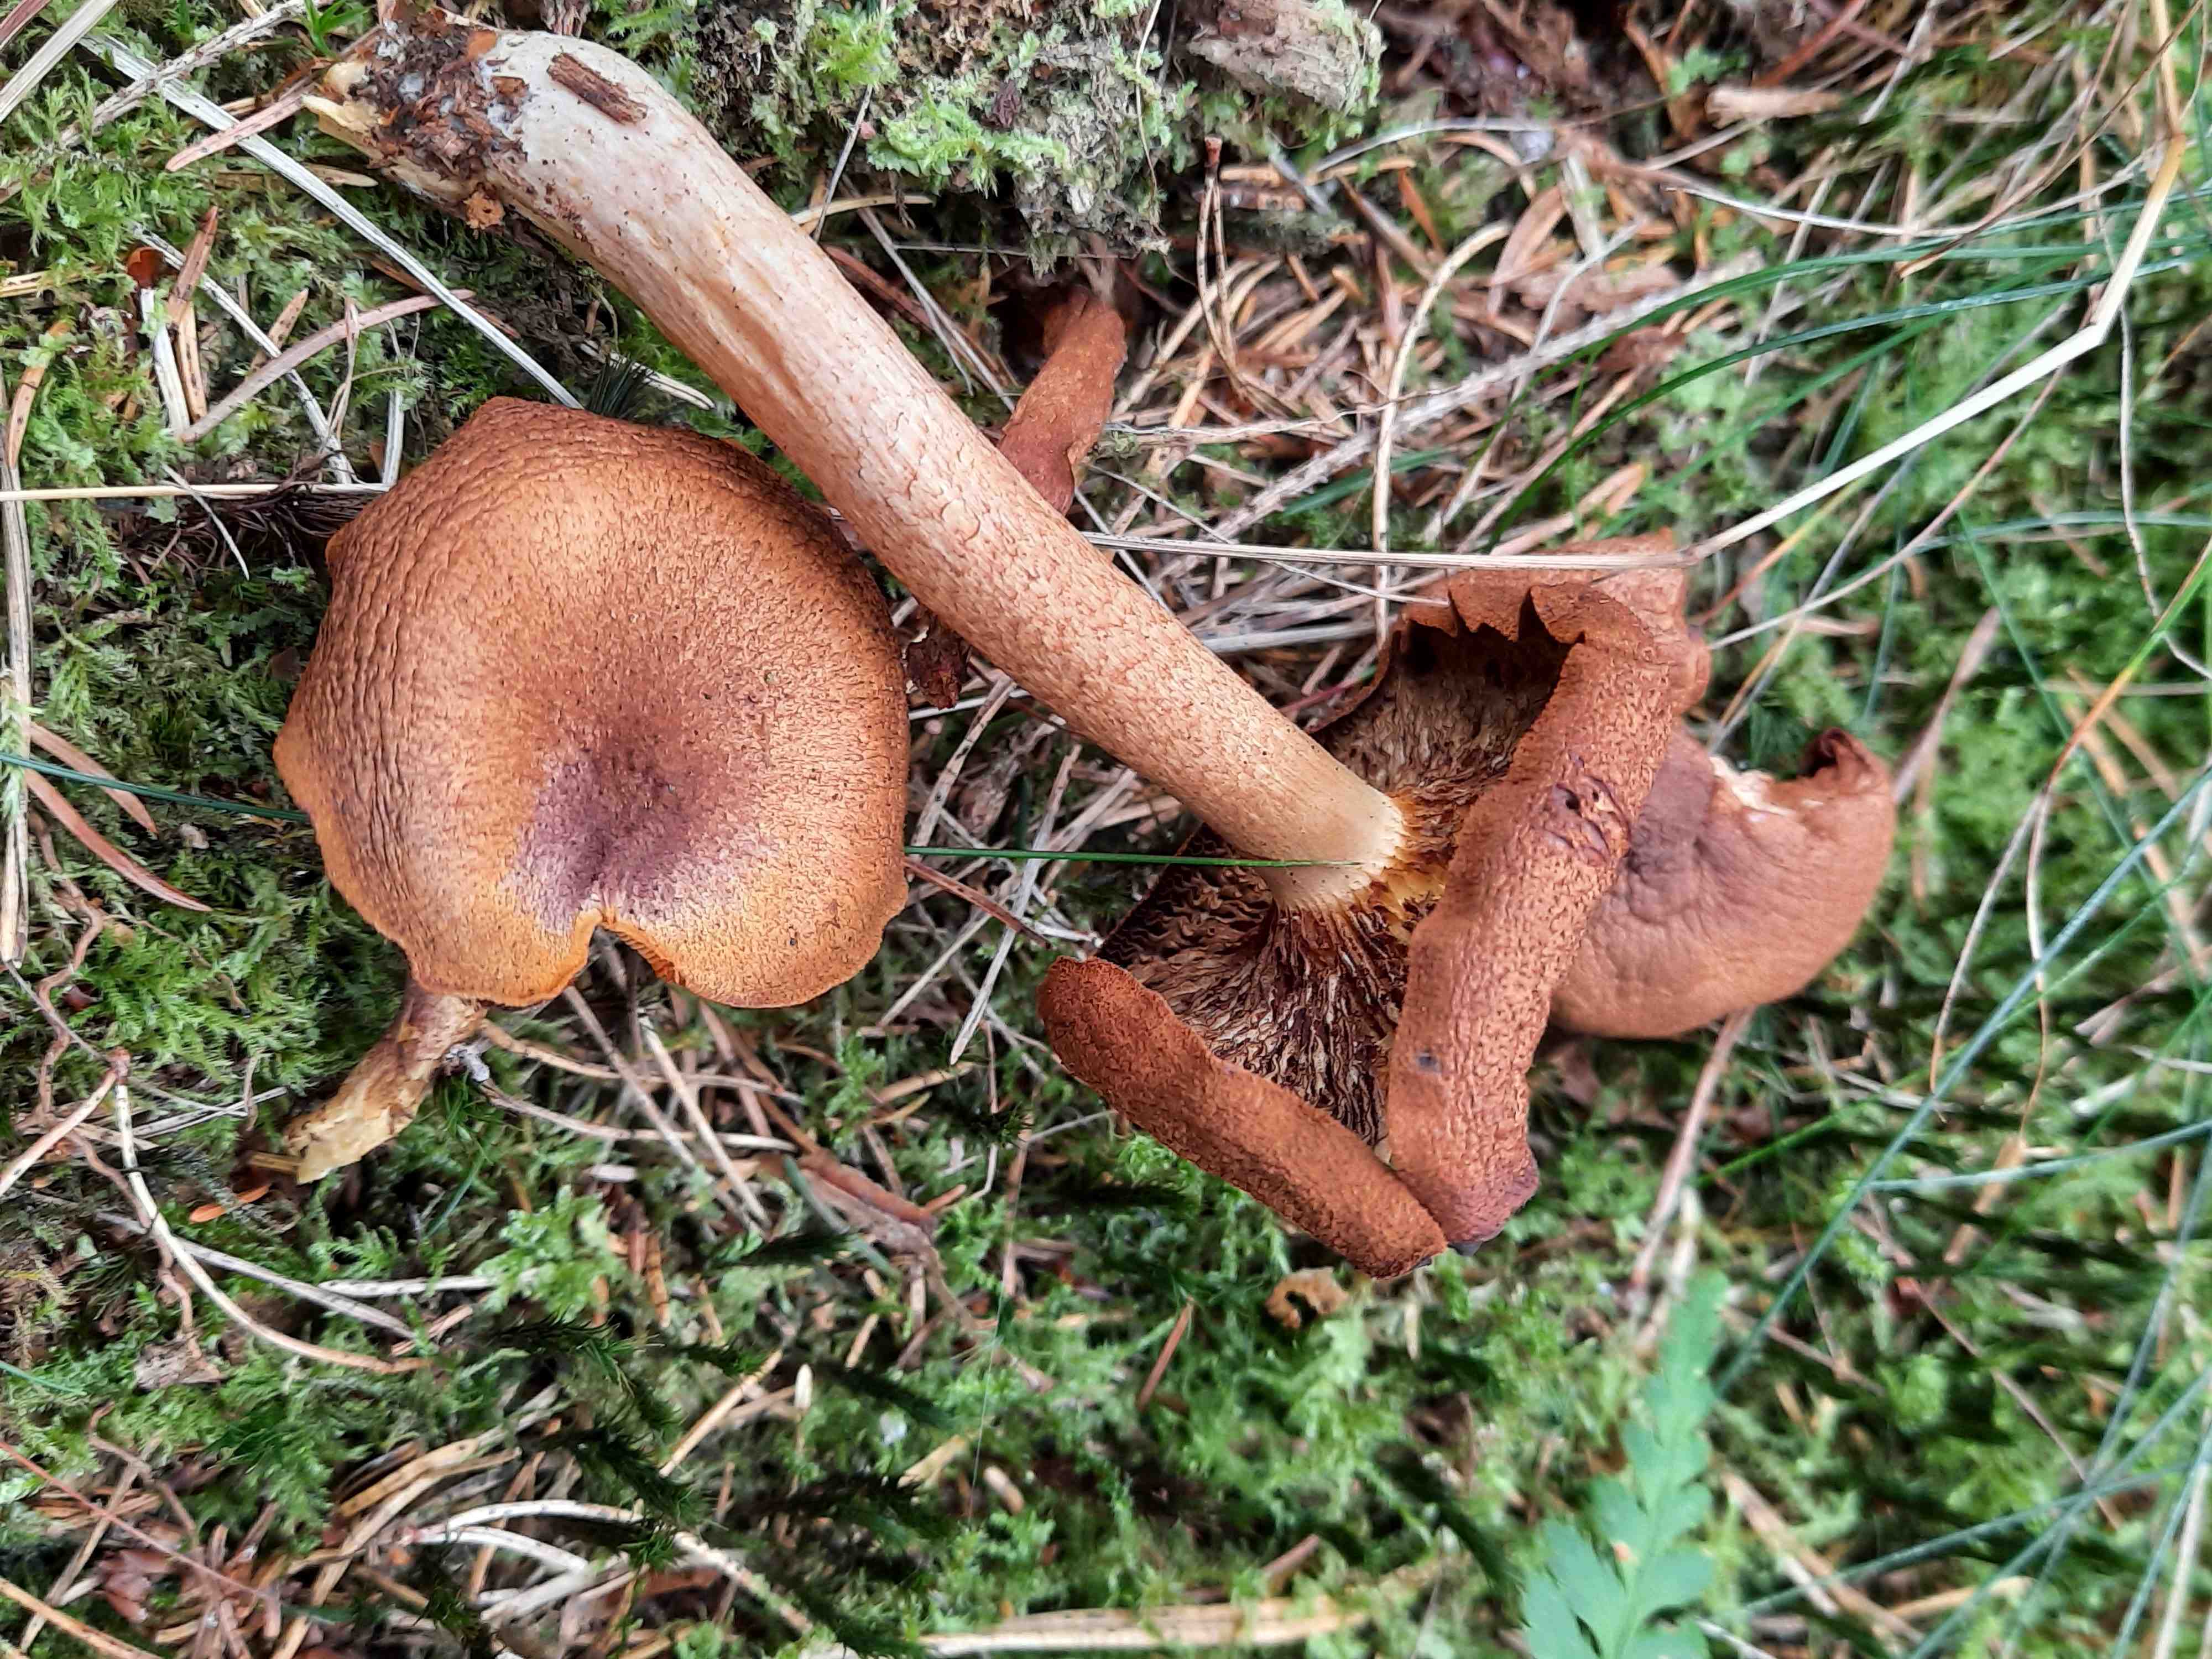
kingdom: Fungi
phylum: Basidiomycota
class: Agaricomycetes
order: Agaricales
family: Tricholomataceae
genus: Tricholomopsis
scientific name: Tricholomopsis rutilans
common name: purpur-væbnerhat
